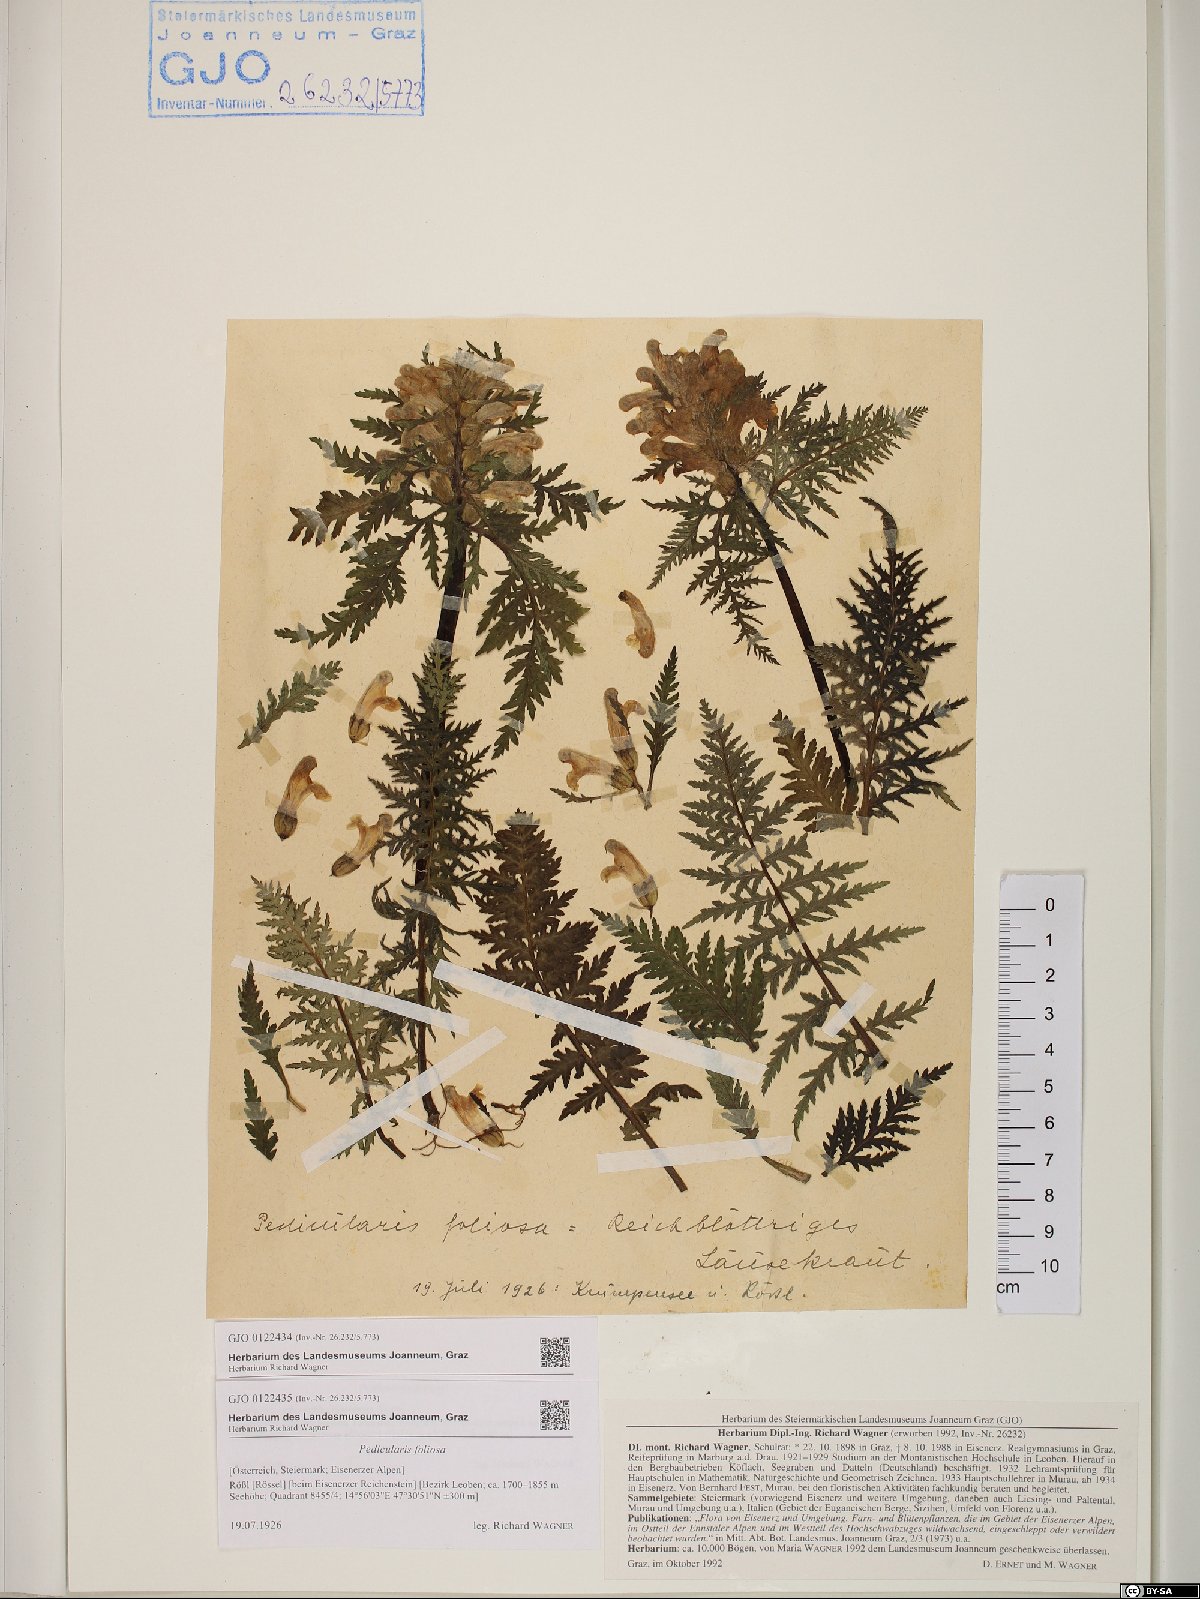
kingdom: Plantae
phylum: Tracheophyta
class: Magnoliopsida
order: Lamiales
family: Orobanchaceae
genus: Pedicularis
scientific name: Pedicularis foliosa
